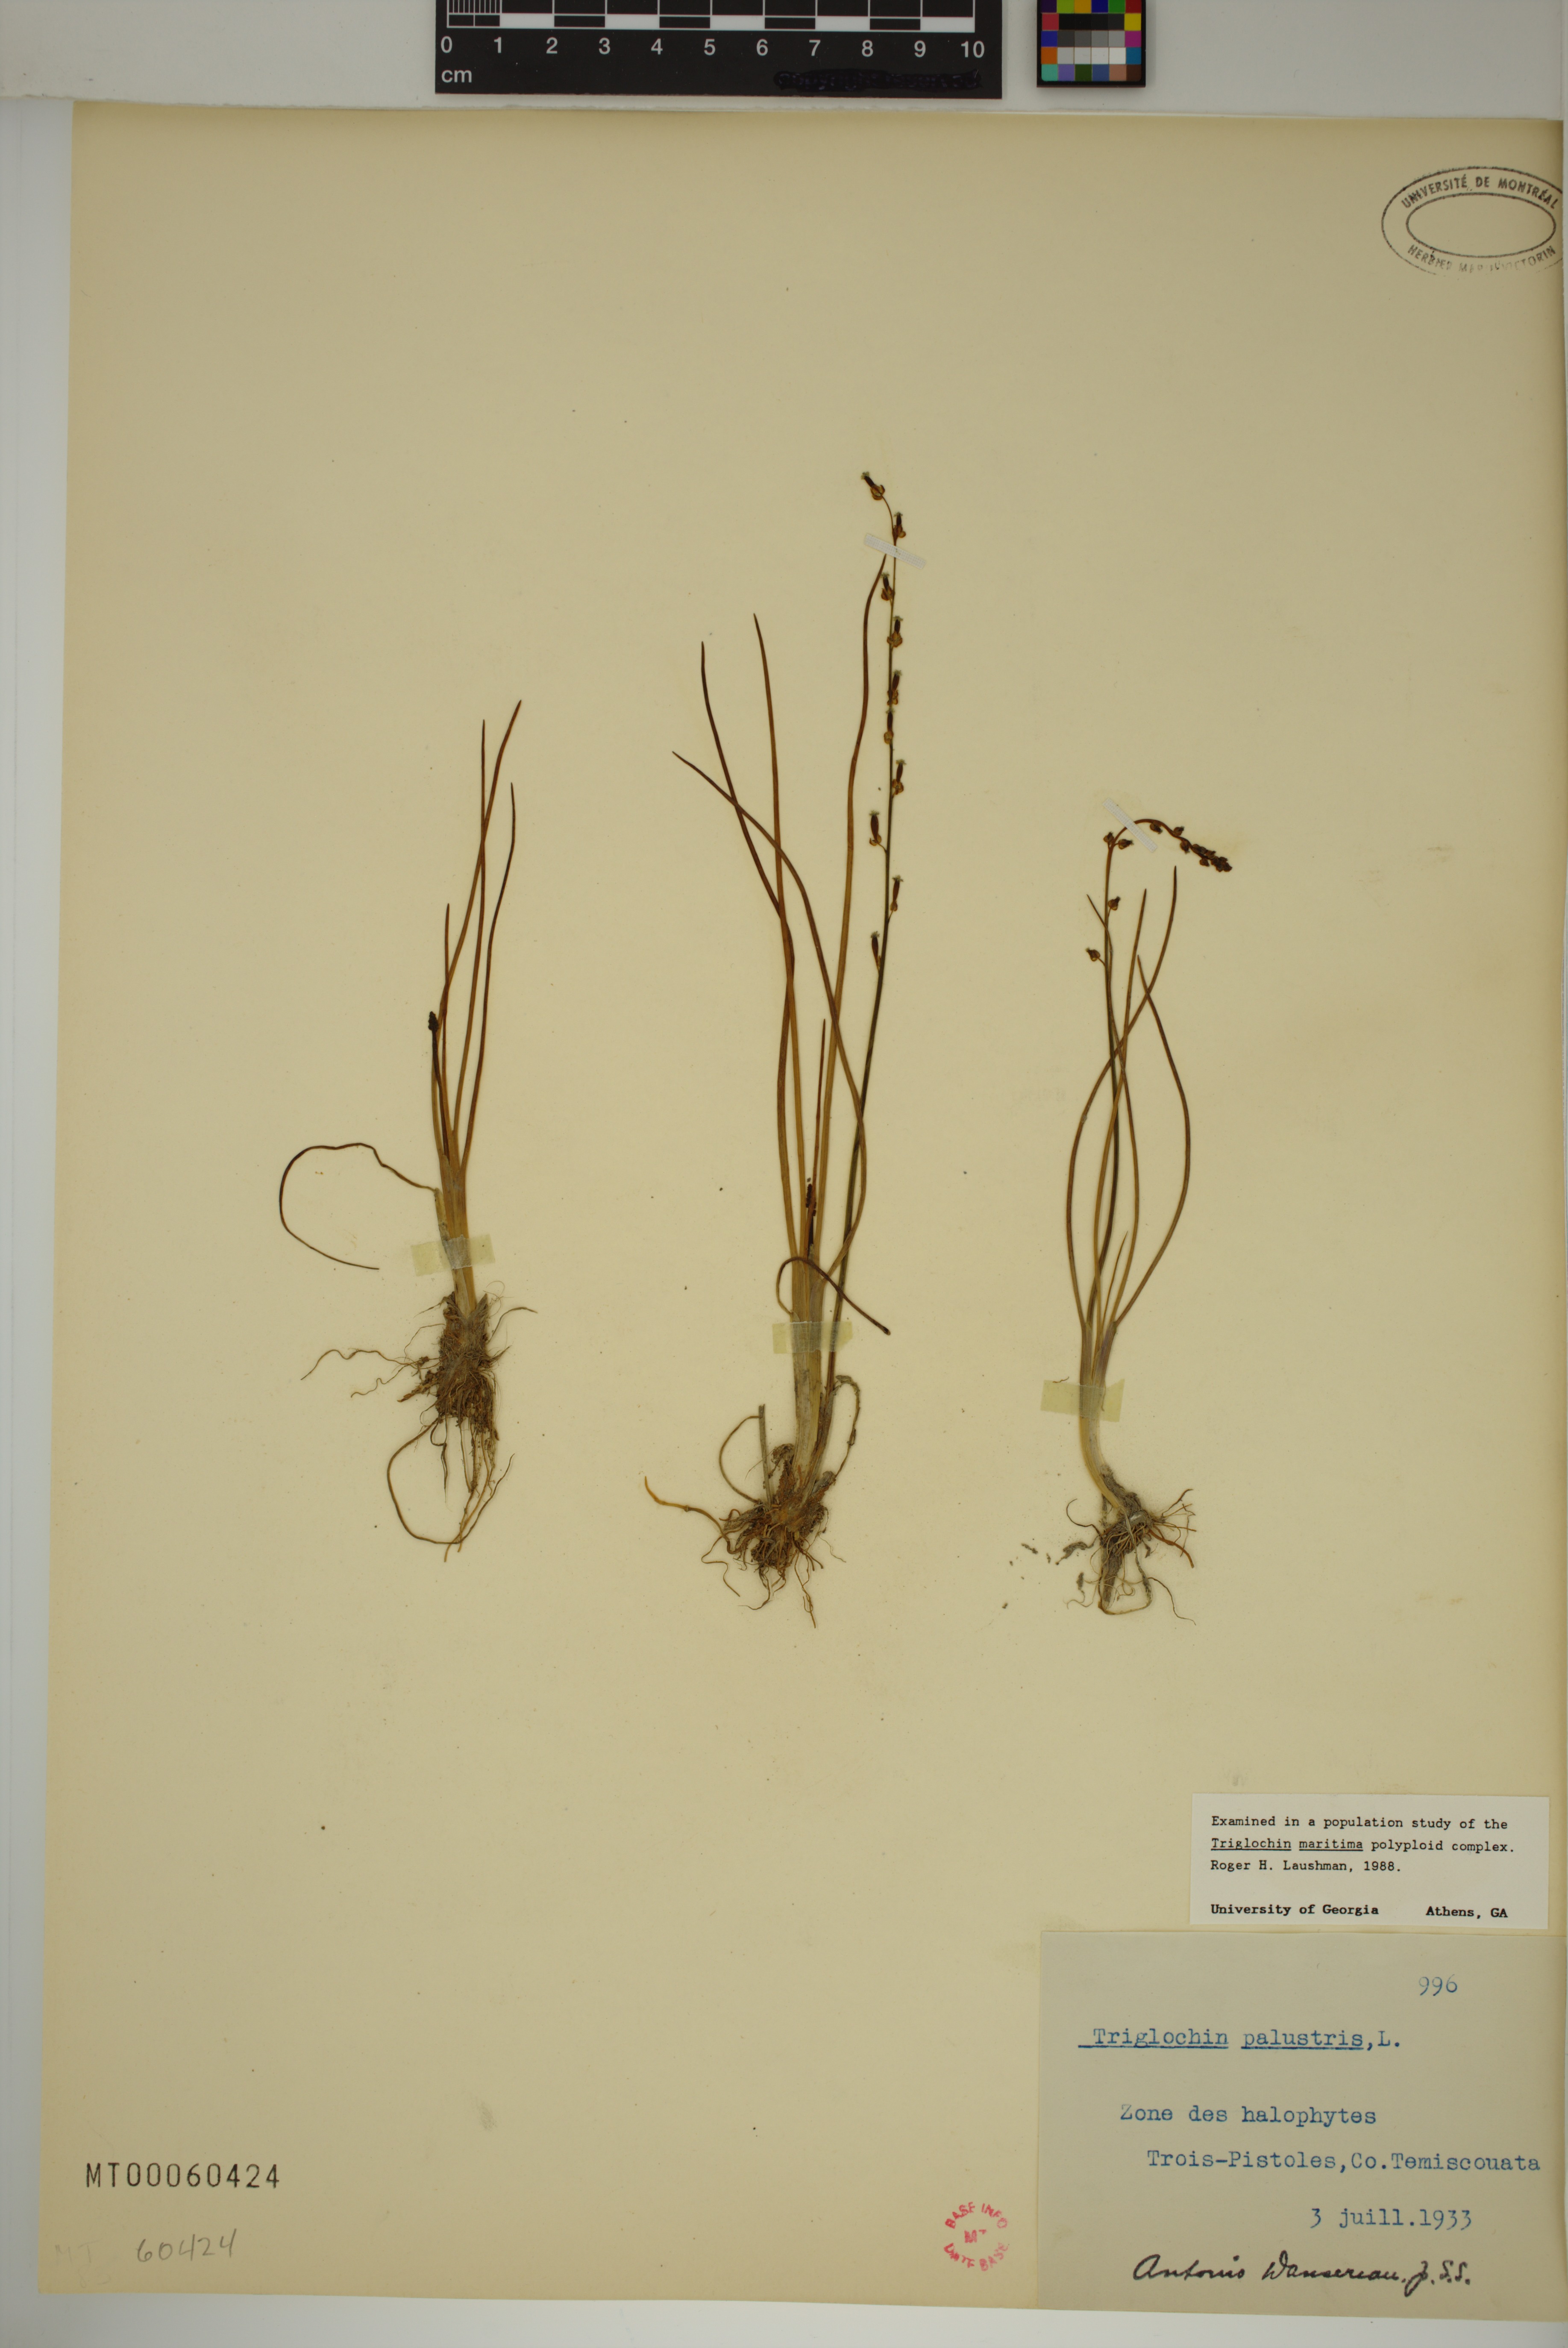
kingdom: Plantae
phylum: Tracheophyta
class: Liliopsida
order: Alismatales
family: Juncaginaceae
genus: Triglochin
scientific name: Triglochin palustris
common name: Marsh arrowgrass
